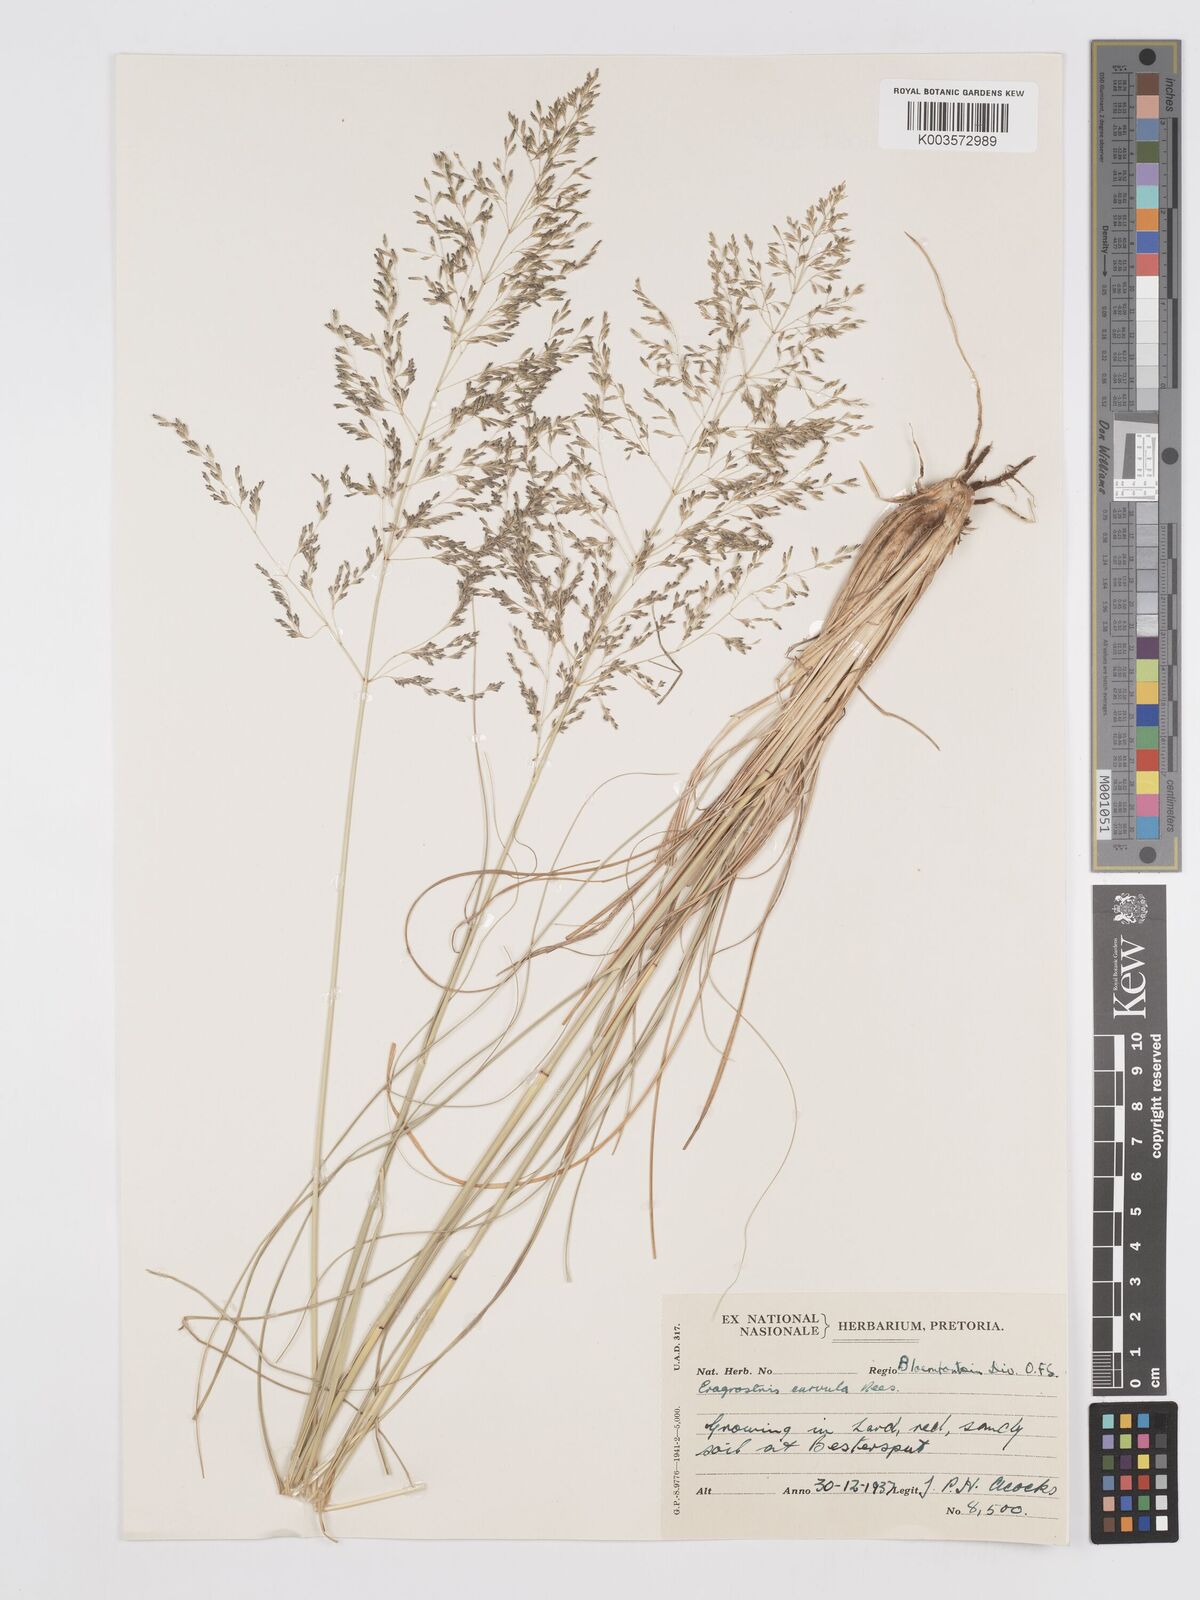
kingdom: Plantae
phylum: Tracheophyta
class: Liliopsida
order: Poales
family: Poaceae
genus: Eragrostis
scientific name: Eragrostis curvula
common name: African love-grass
